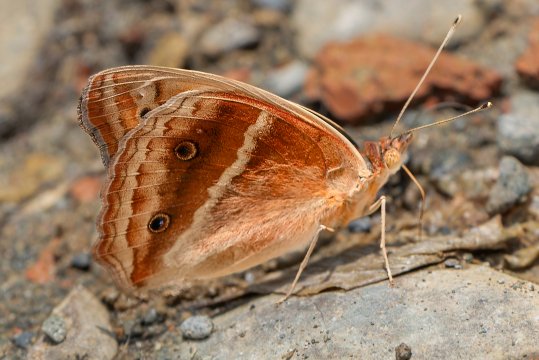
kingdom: Animalia
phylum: Arthropoda
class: Insecta
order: Lepidoptera
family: Nymphalidae
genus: Junonia
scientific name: Junonia lavinia
